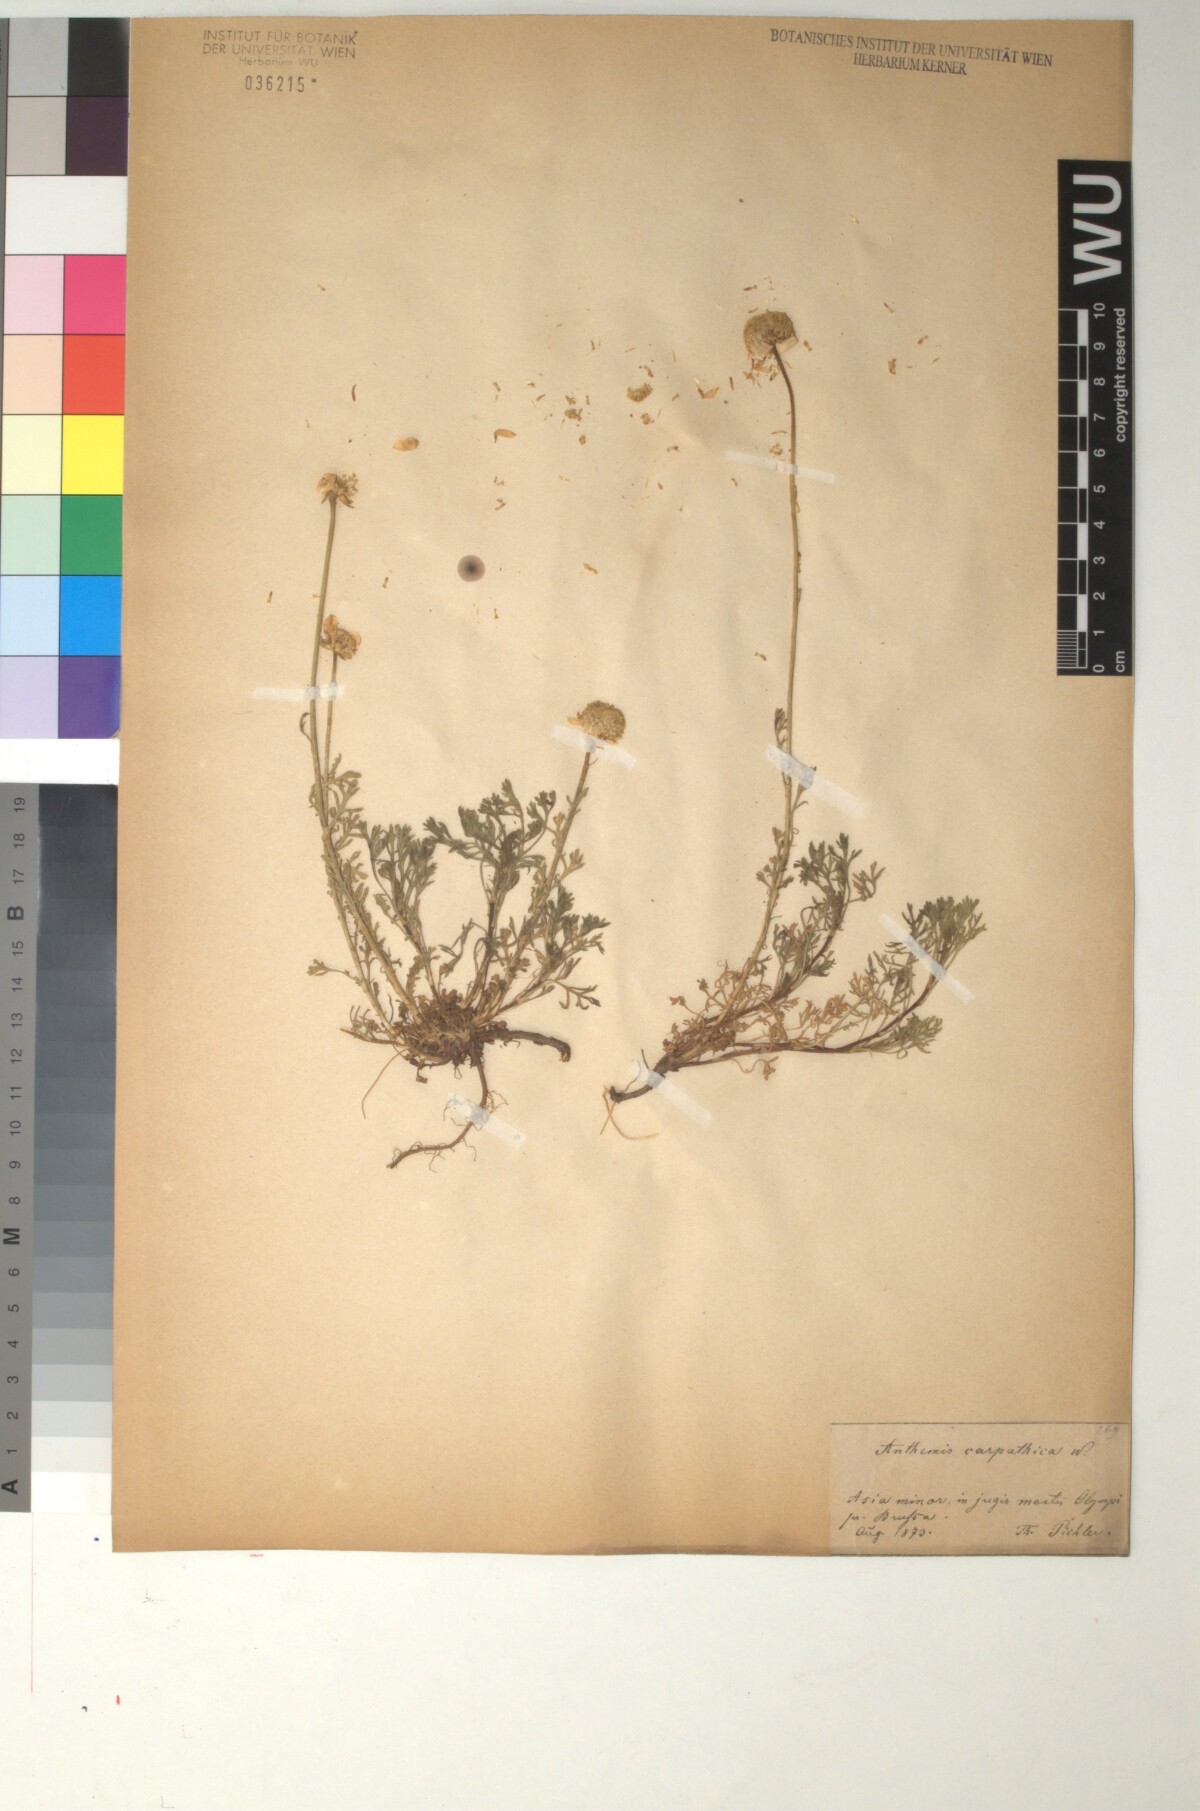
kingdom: Plantae
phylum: Tracheophyta
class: Magnoliopsida
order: Asterales
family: Asteraceae
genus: Anthemis
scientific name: Anthemis cretica
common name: Mountain dog-daisy
